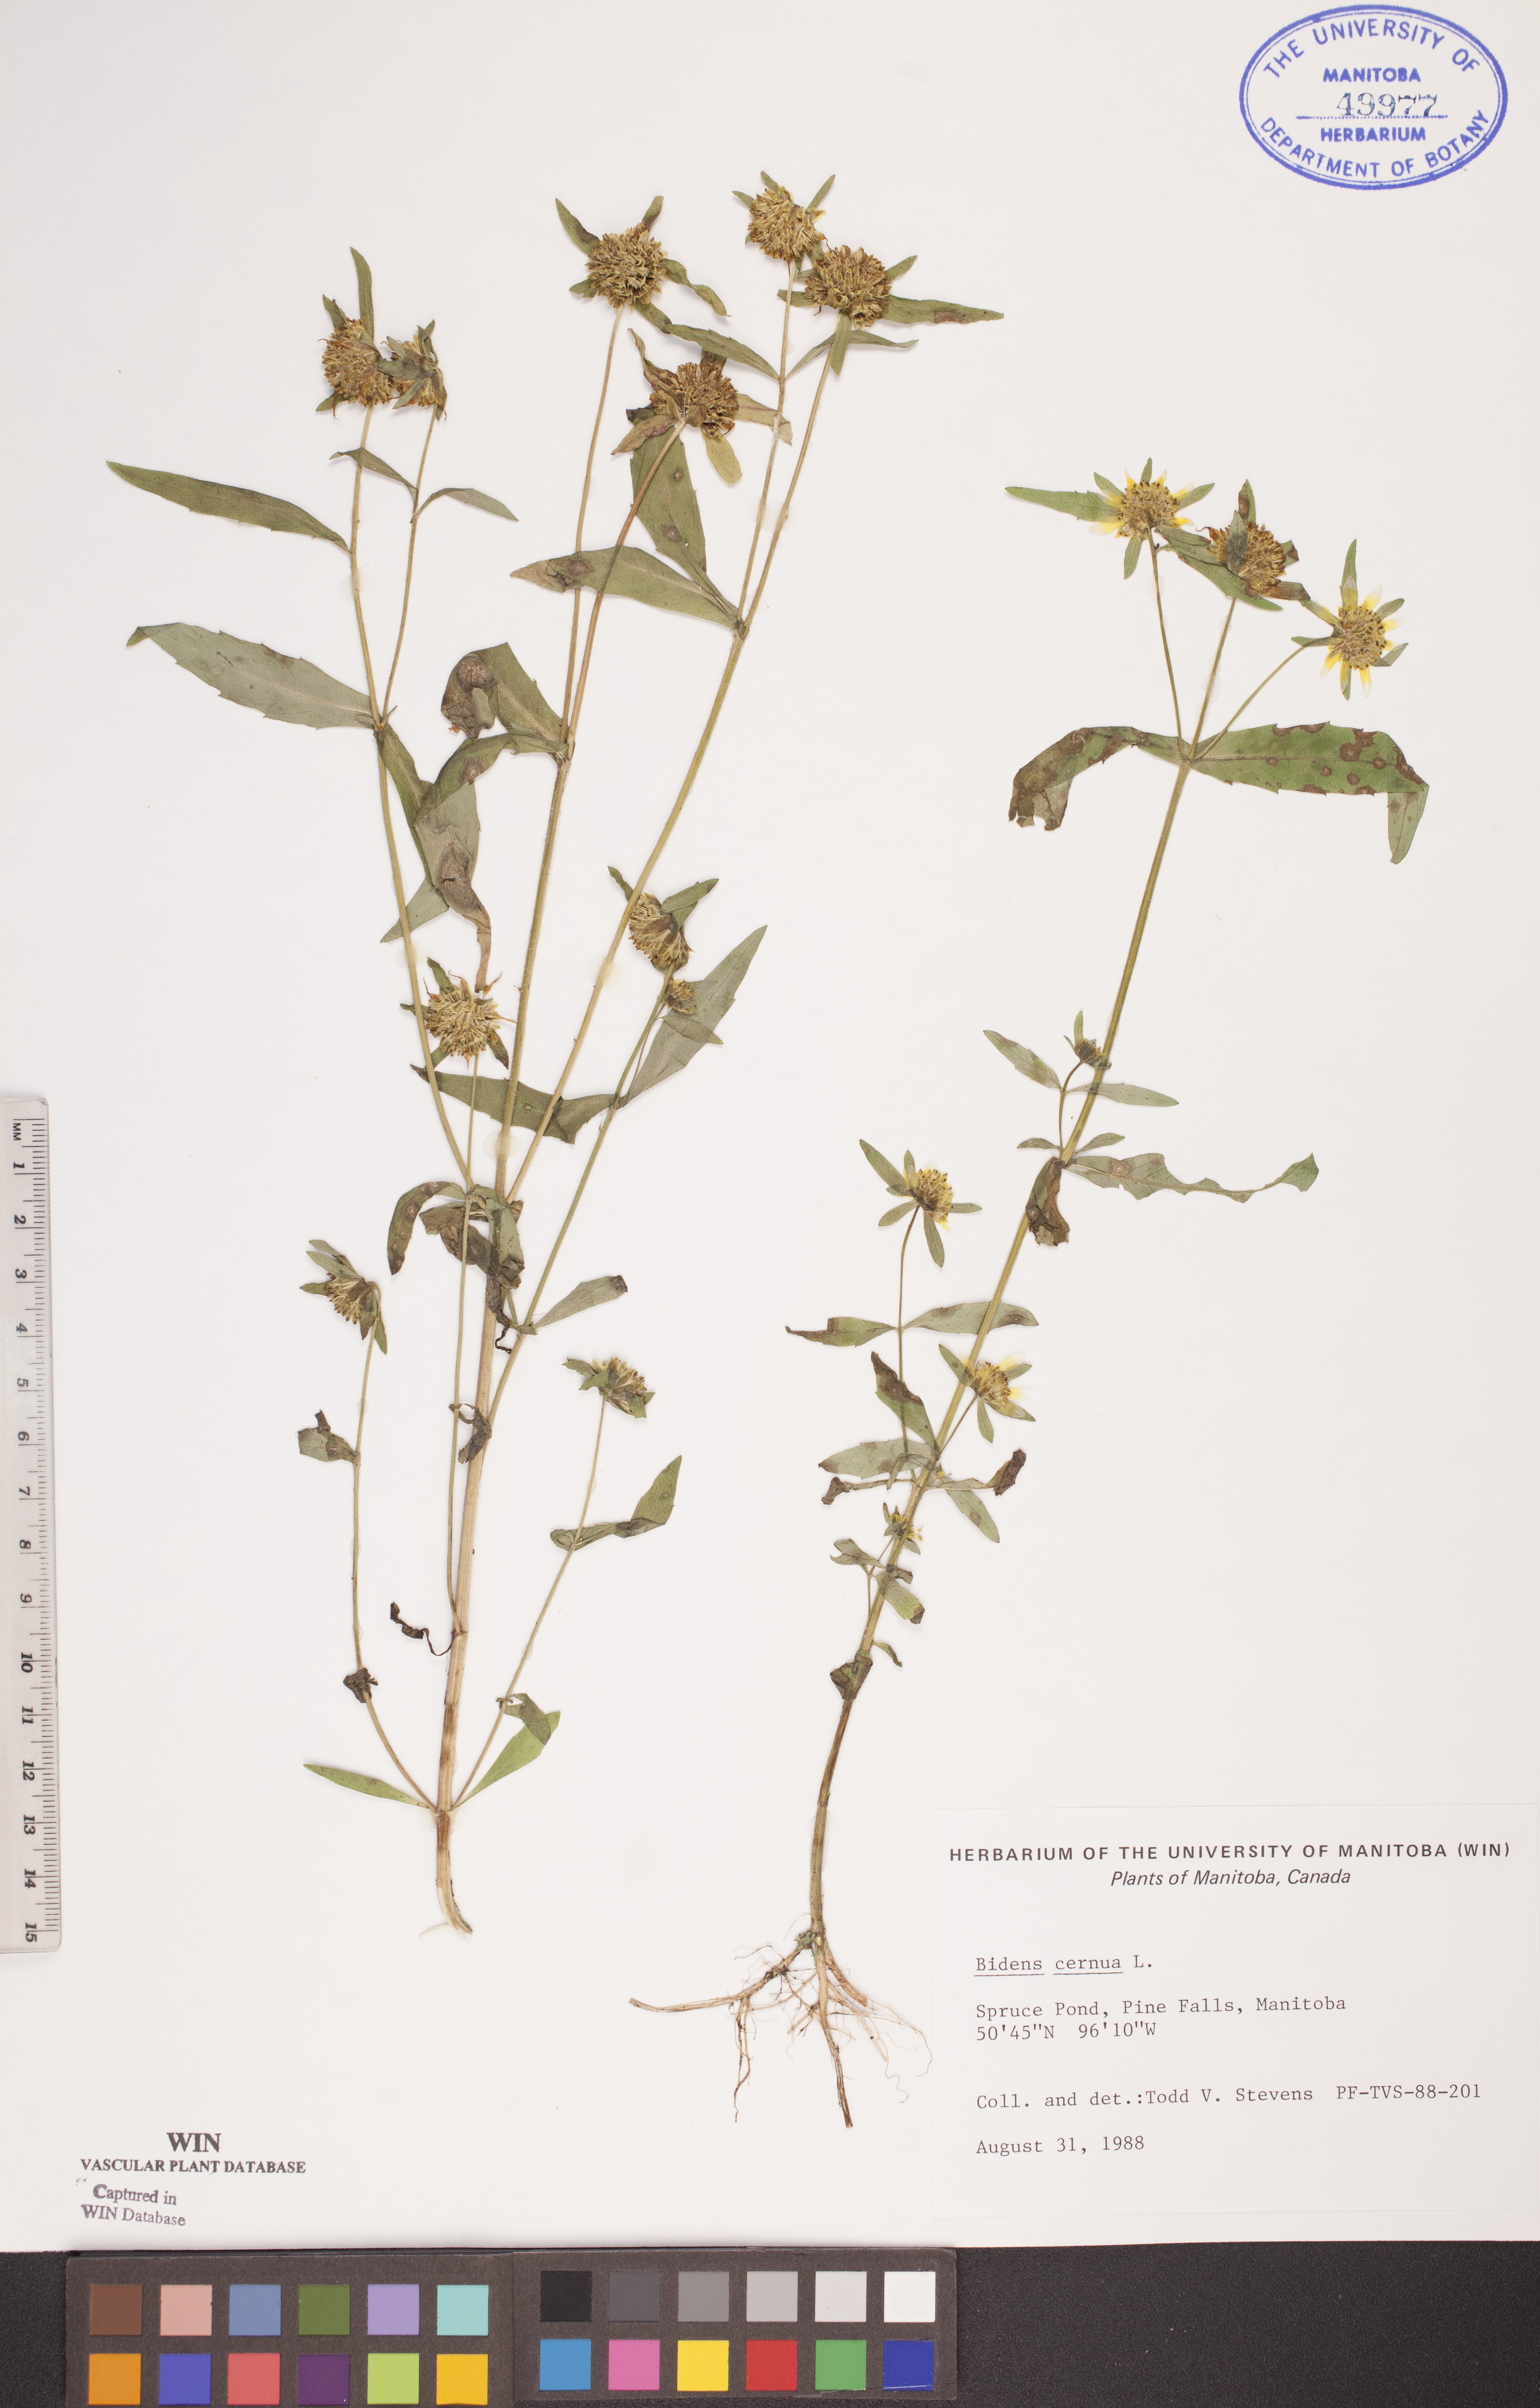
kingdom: Plantae
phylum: Tracheophyta
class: Magnoliopsida
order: Asterales
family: Asteraceae
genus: Bidens
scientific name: Bidens cernua
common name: Nodding bur-marigold
